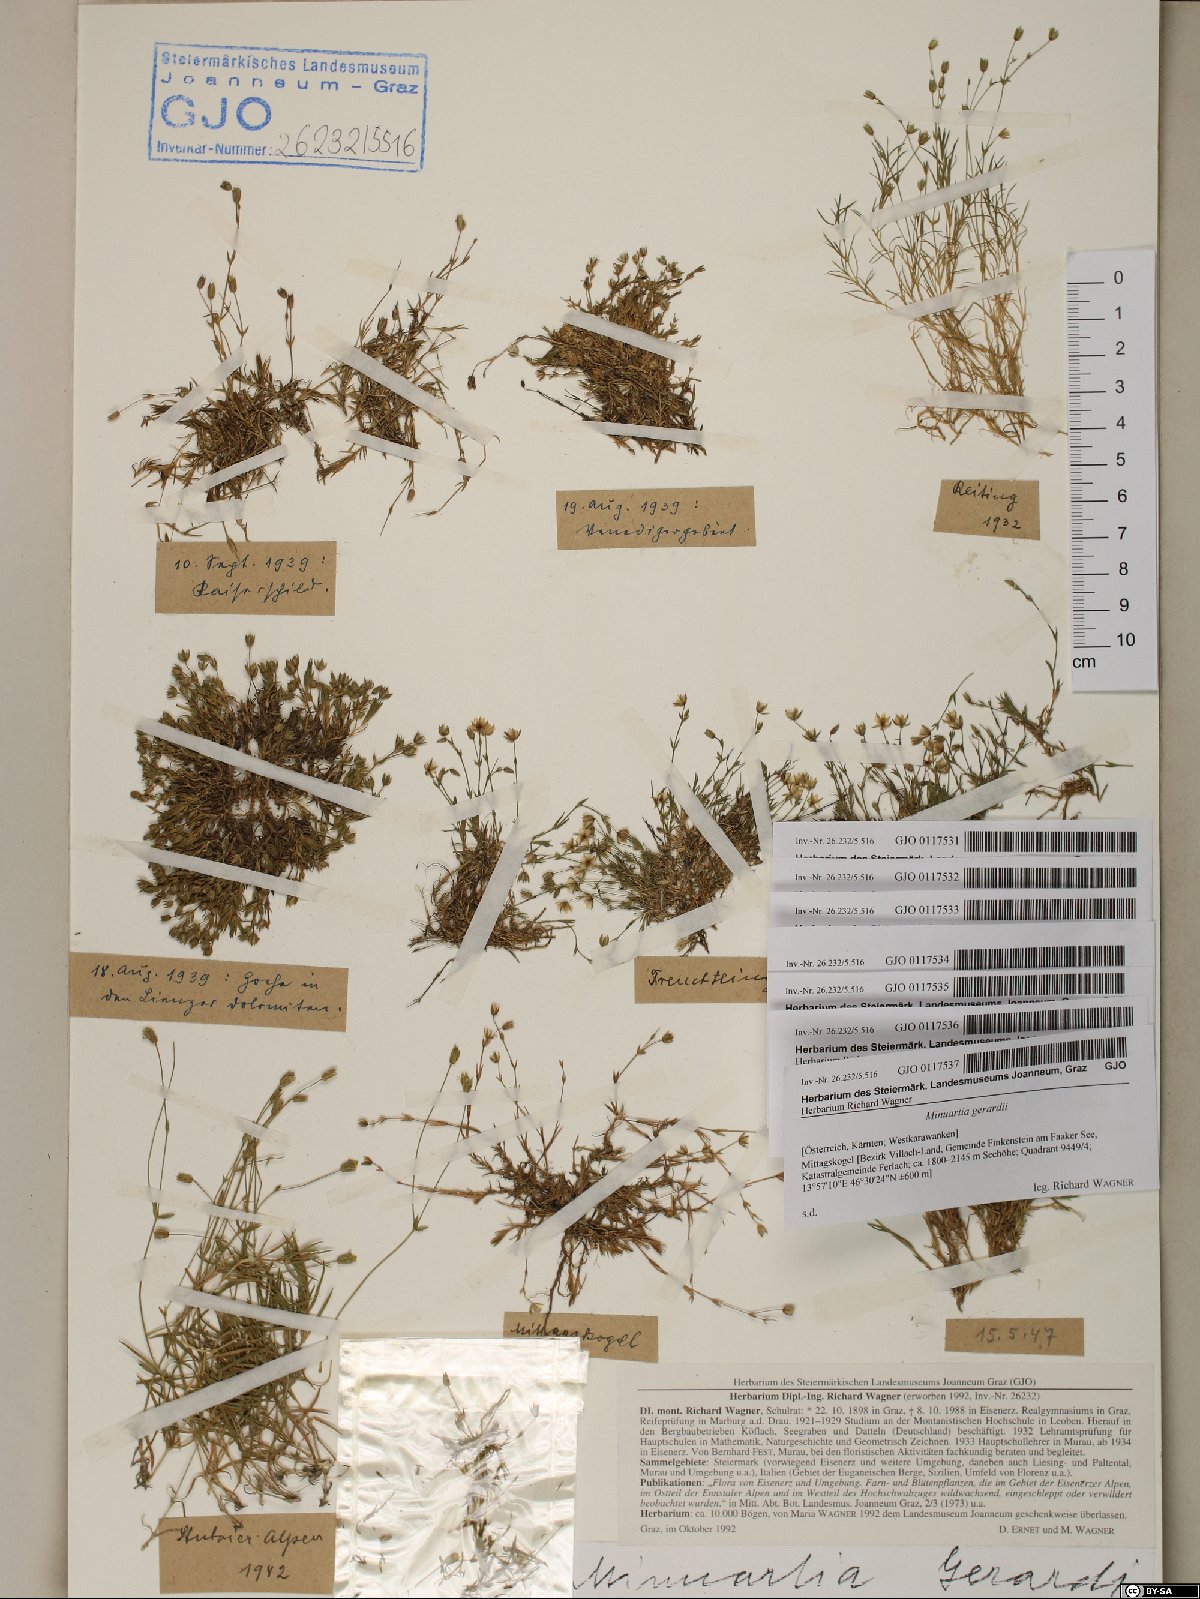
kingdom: Plantae
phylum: Tracheophyta
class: Magnoliopsida
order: Caryophyllales
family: Caryophyllaceae
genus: Sabulina
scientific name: Sabulina verna
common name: Spring sandwort
